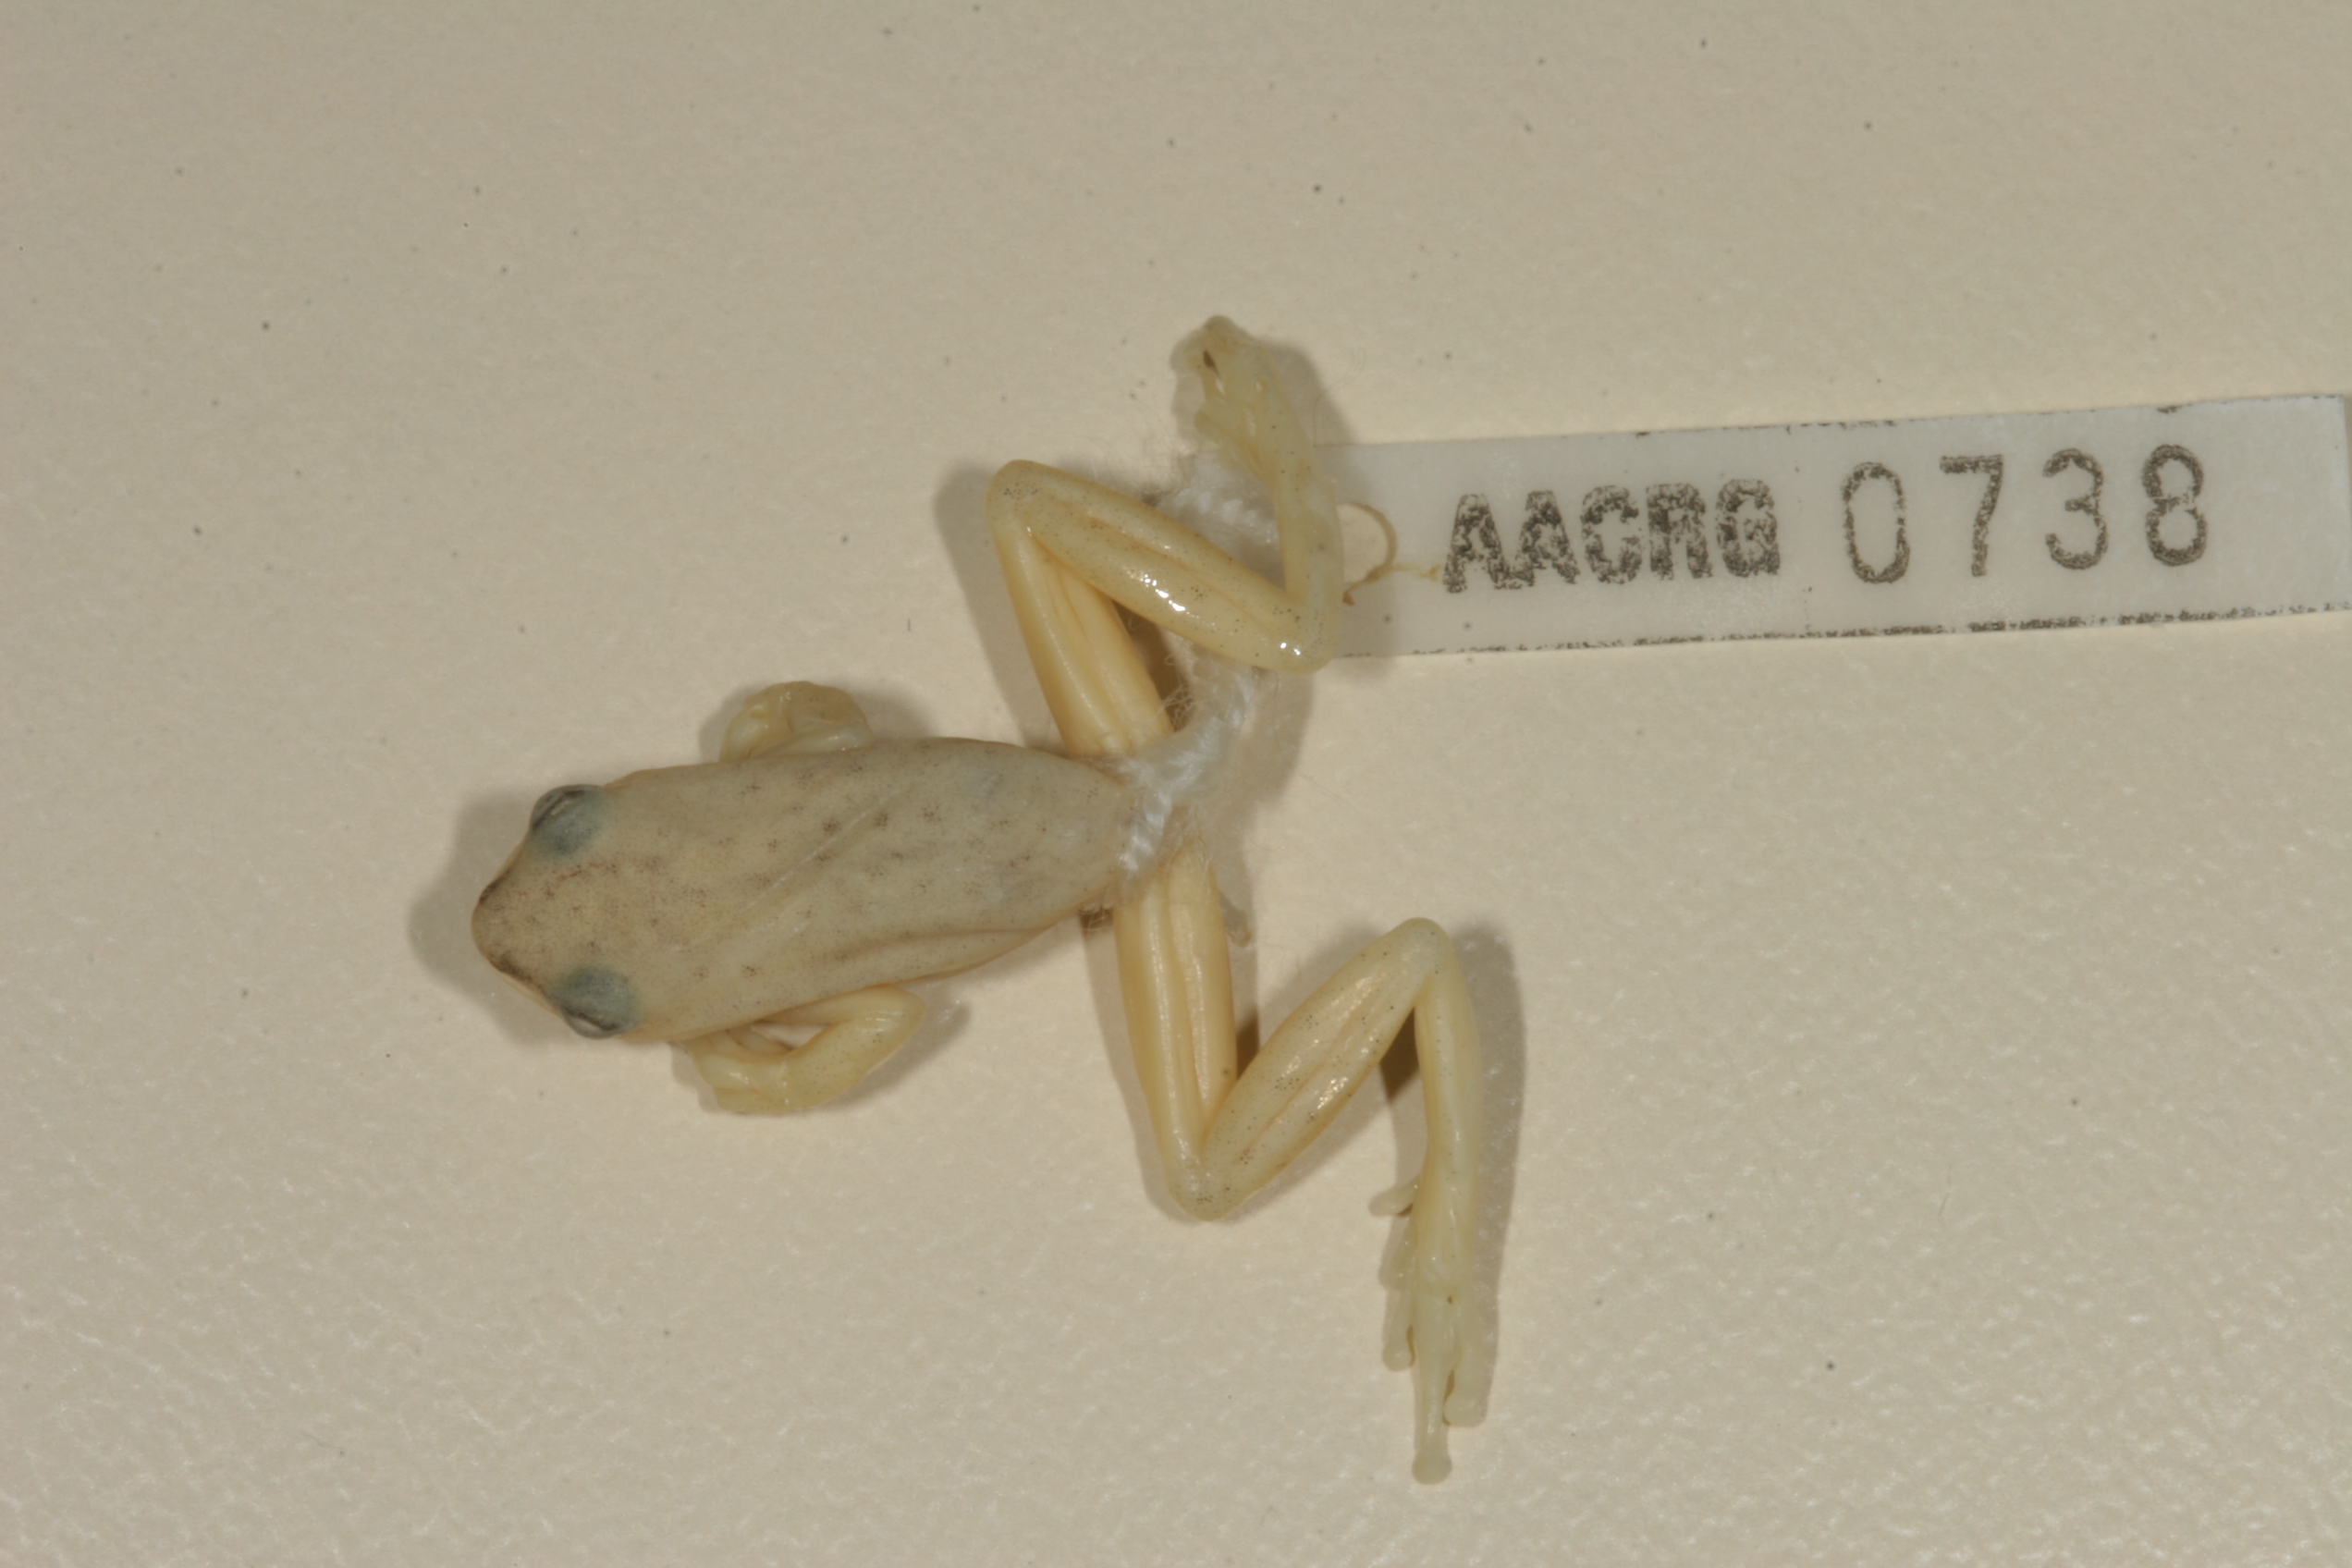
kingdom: Animalia
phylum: Chordata
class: Amphibia
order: Anura
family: Hyperoliidae
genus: Hyperolius
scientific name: Hyperolius marmoratus
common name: Painted reed frog
